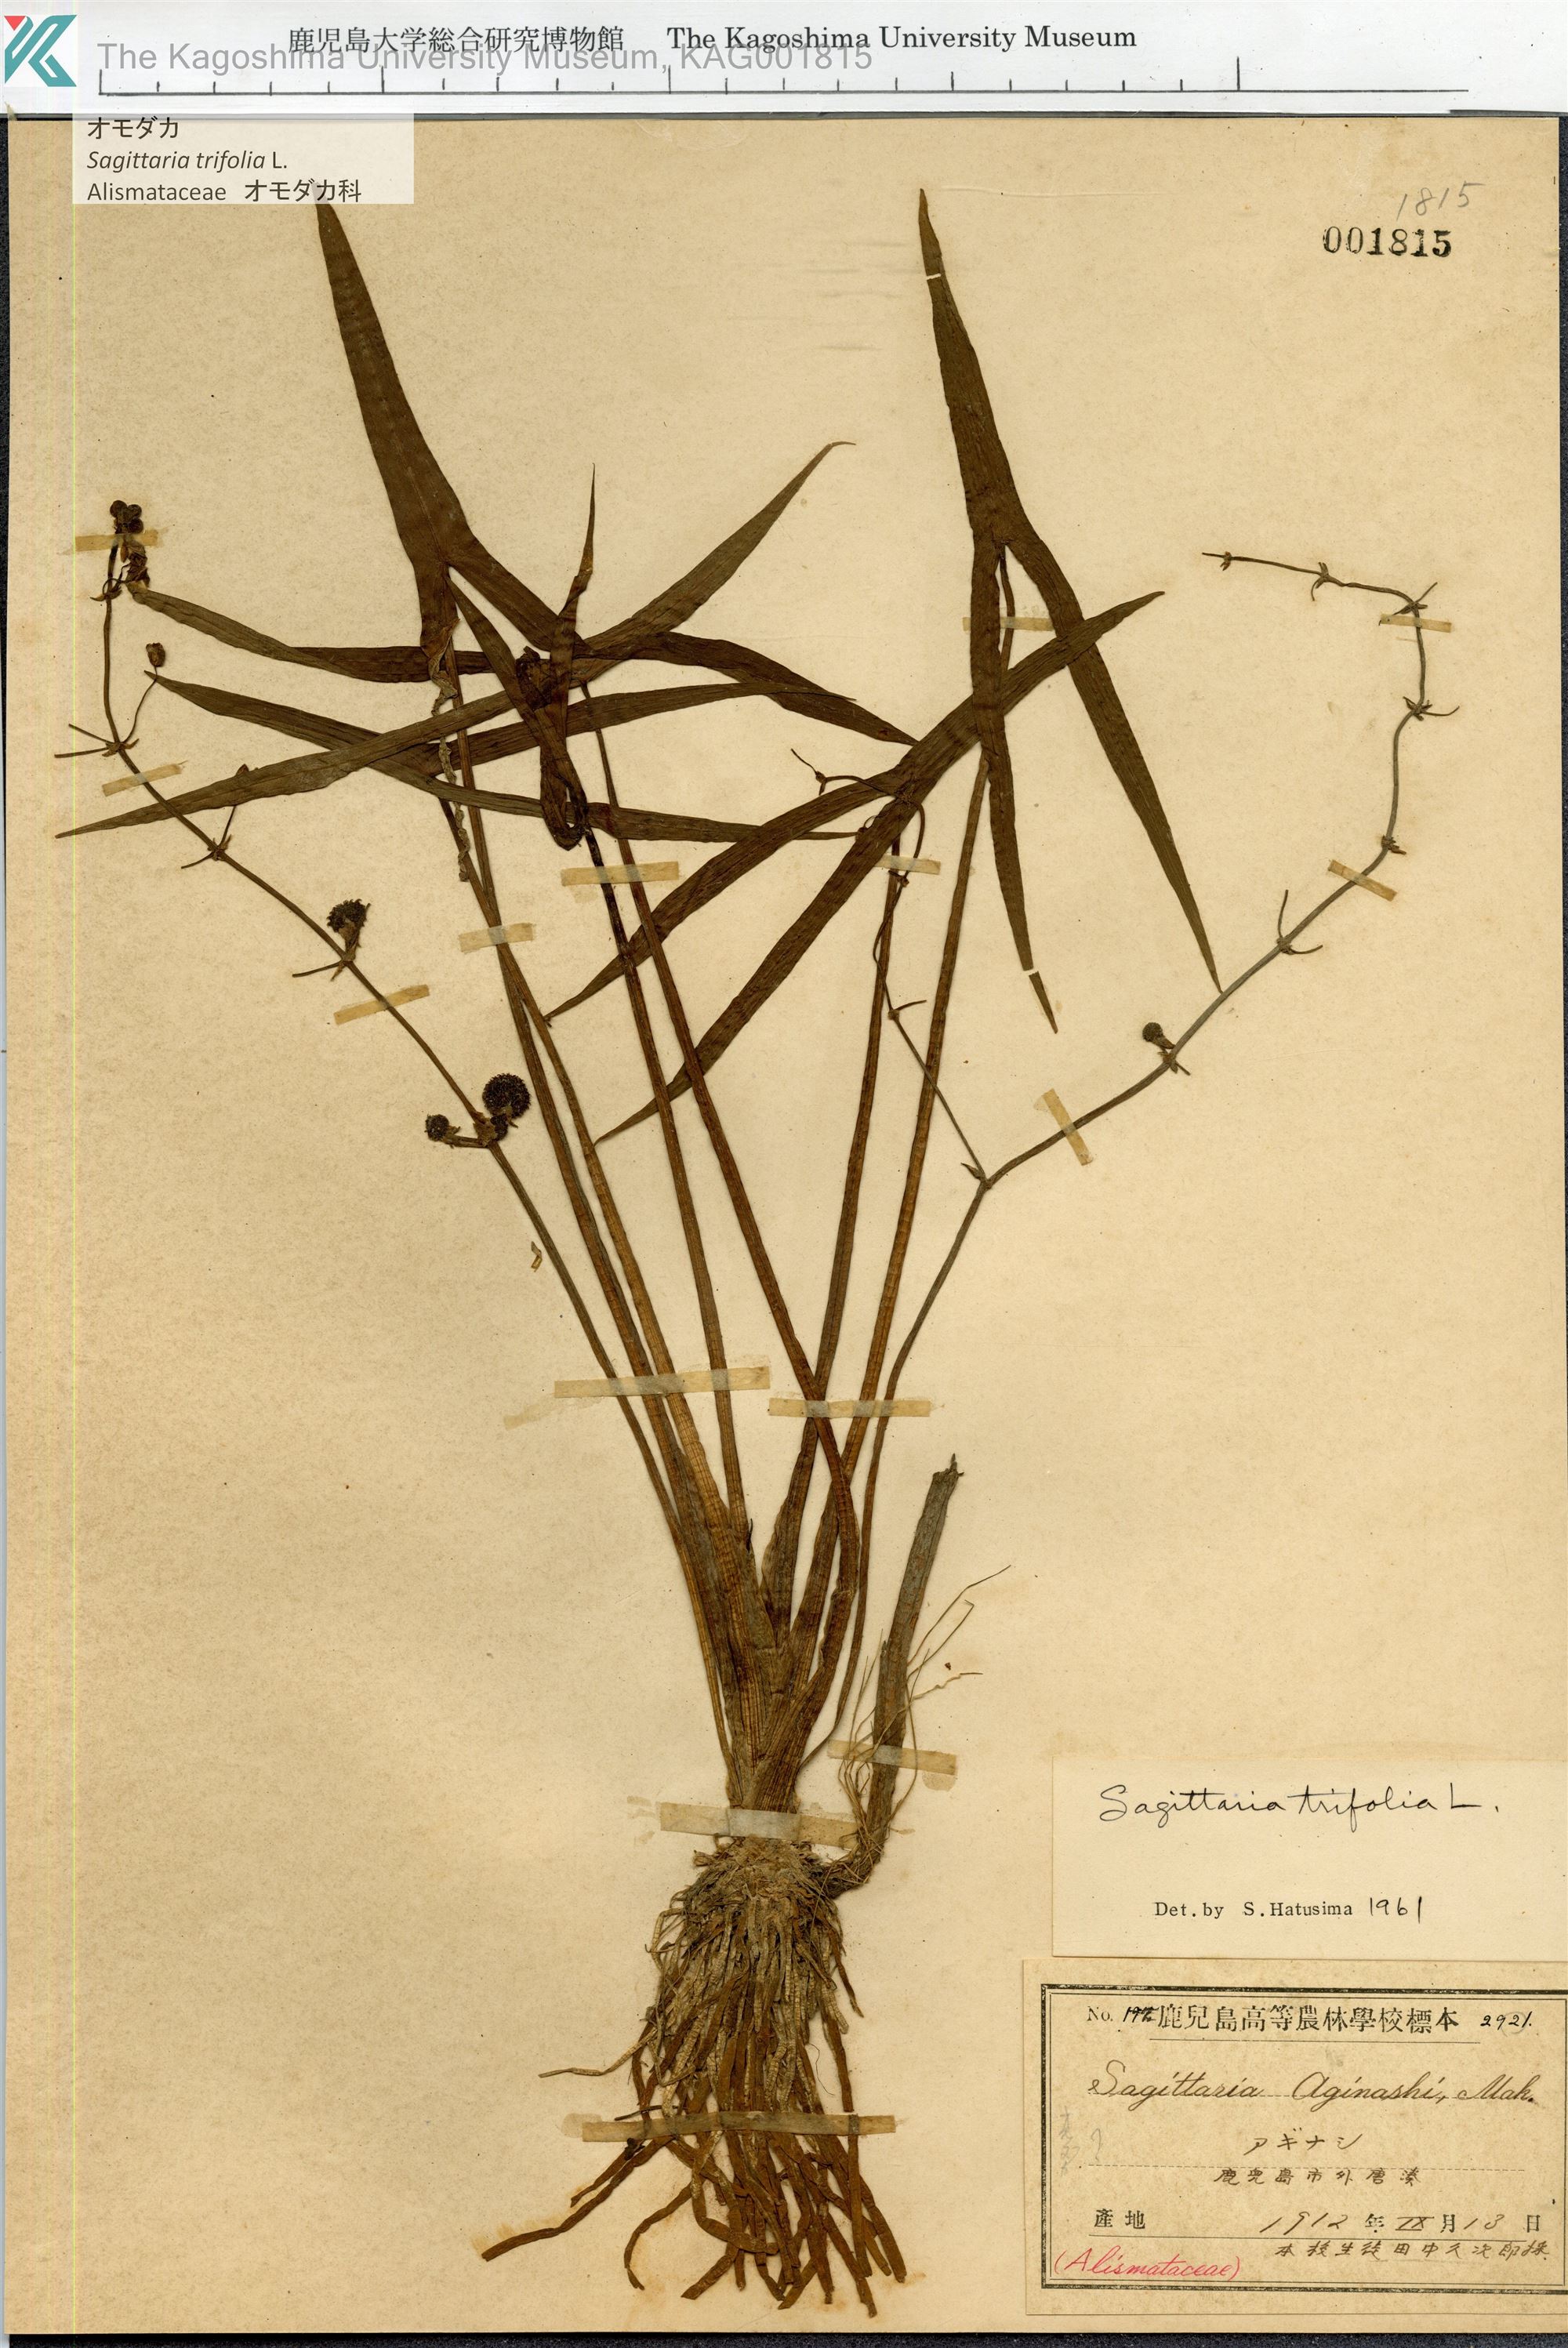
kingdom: Plantae
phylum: Tracheophyta
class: Liliopsida
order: Alismatales
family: Alismataceae
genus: Sagittaria
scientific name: Sagittaria trifolia
